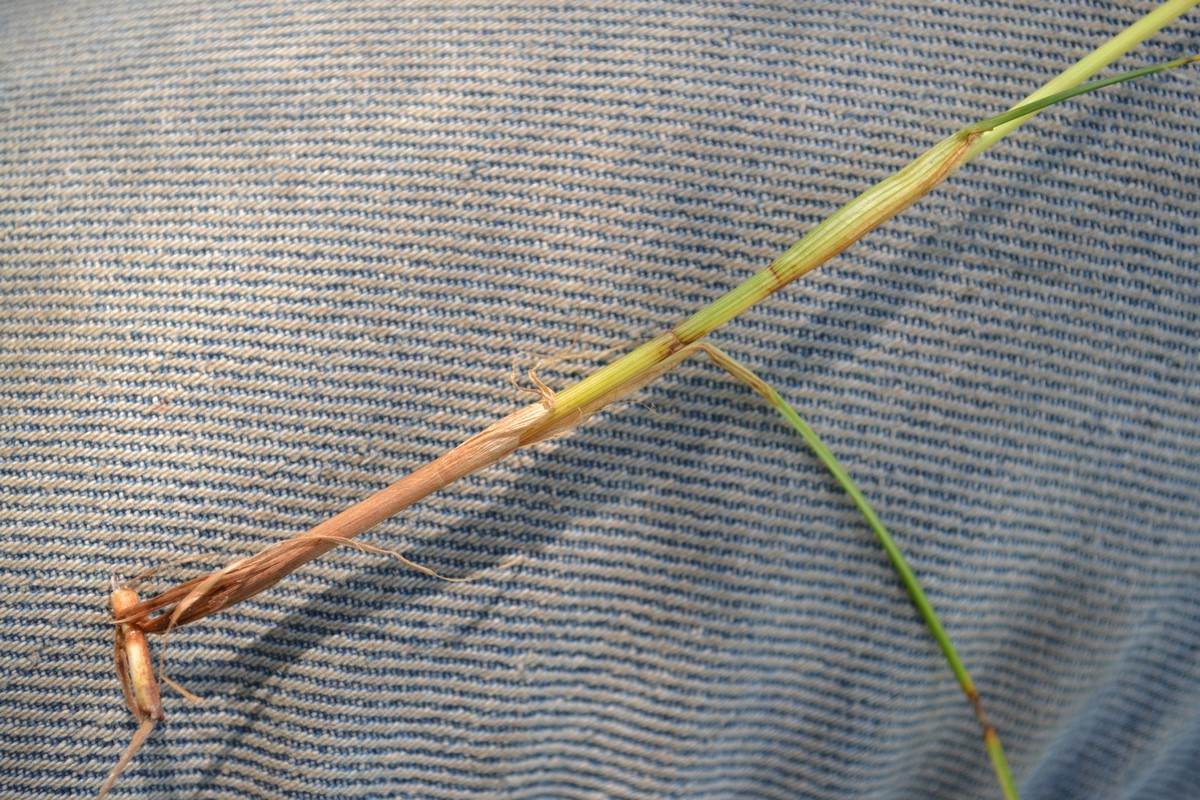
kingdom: Plantae
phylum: Tracheophyta
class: Liliopsida
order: Poales
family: Cyperaceae
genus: Eriophorum
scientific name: Eriophorum vaginatum
